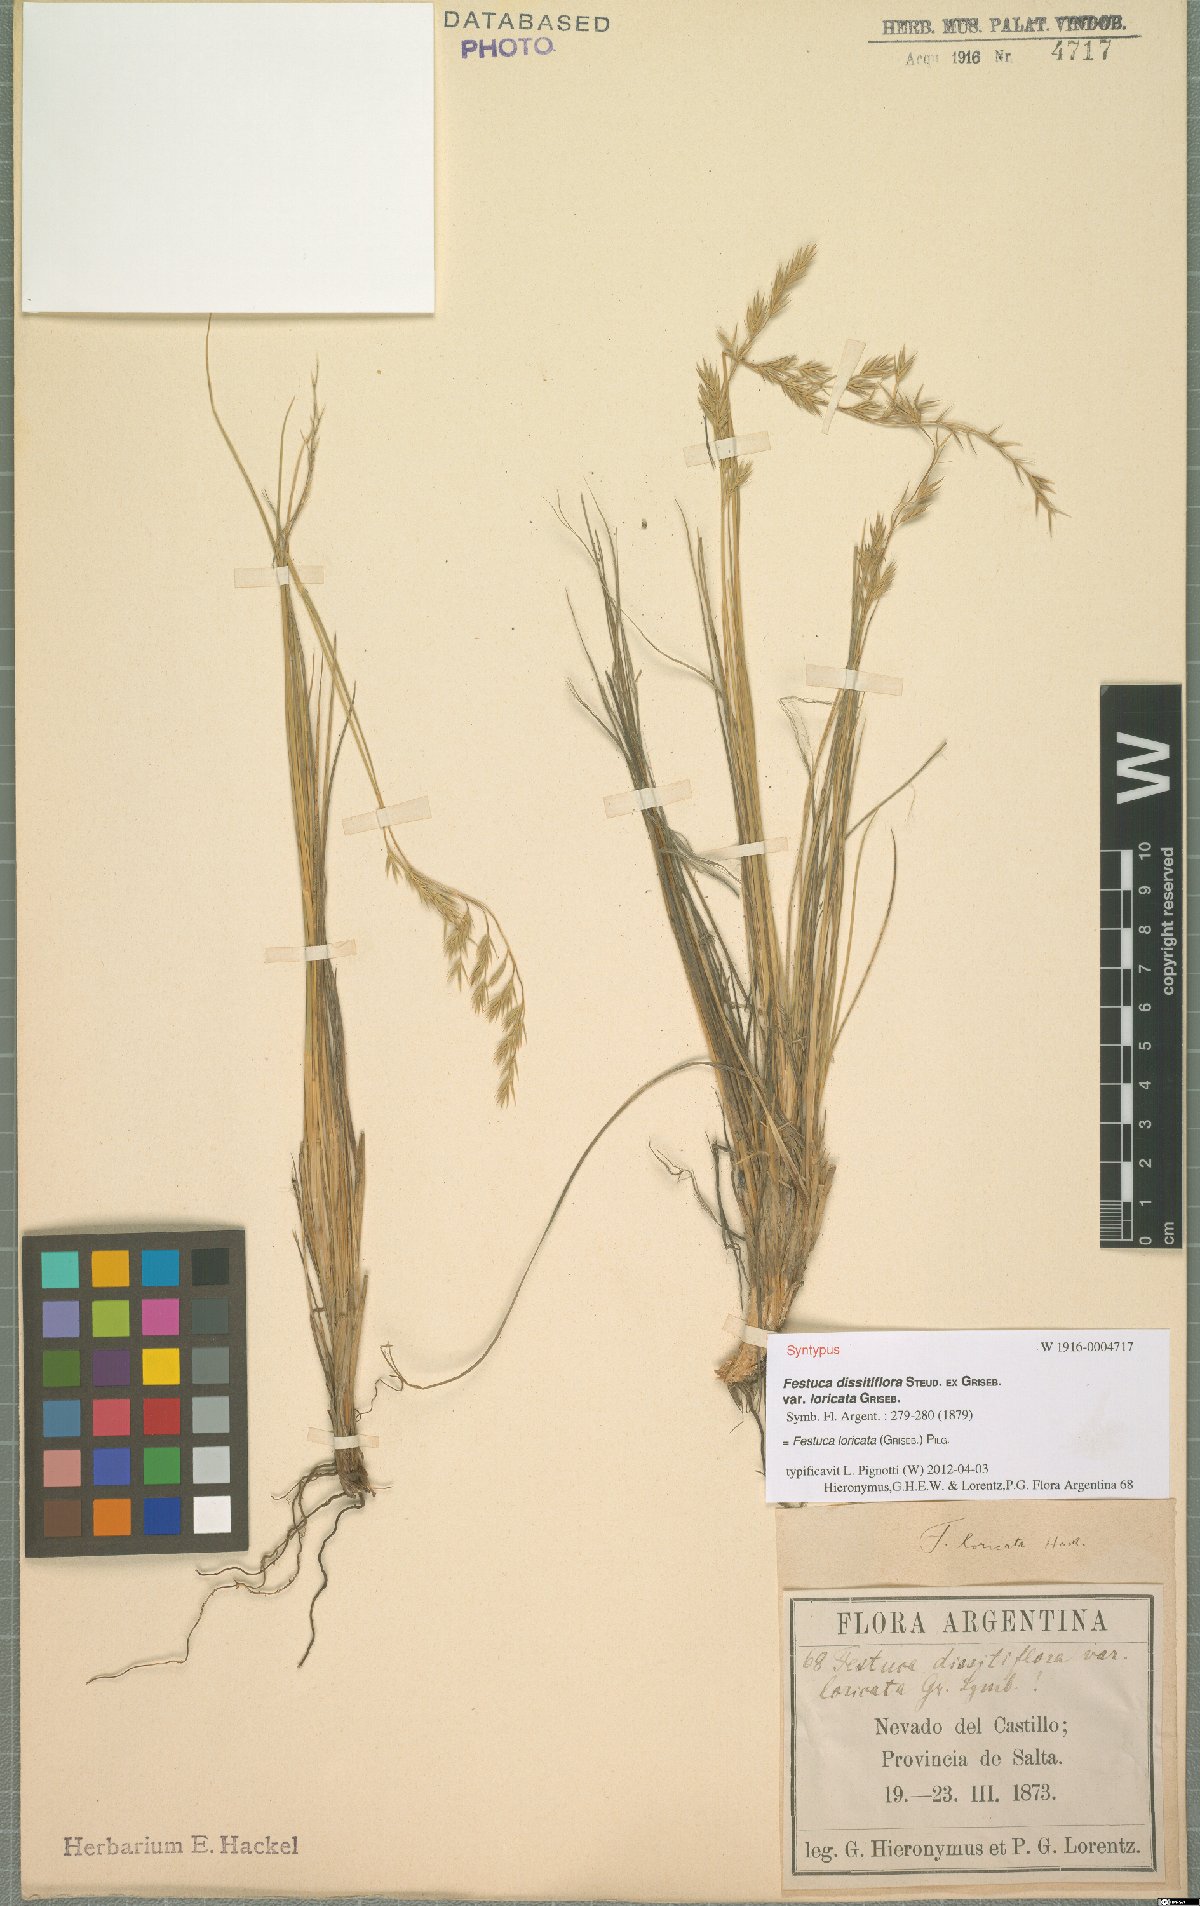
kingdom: Plantae
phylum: Tracheophyta
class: Liliopsida
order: Poales
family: Poaceae
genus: Festuca
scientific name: Festuca fiebrigii
